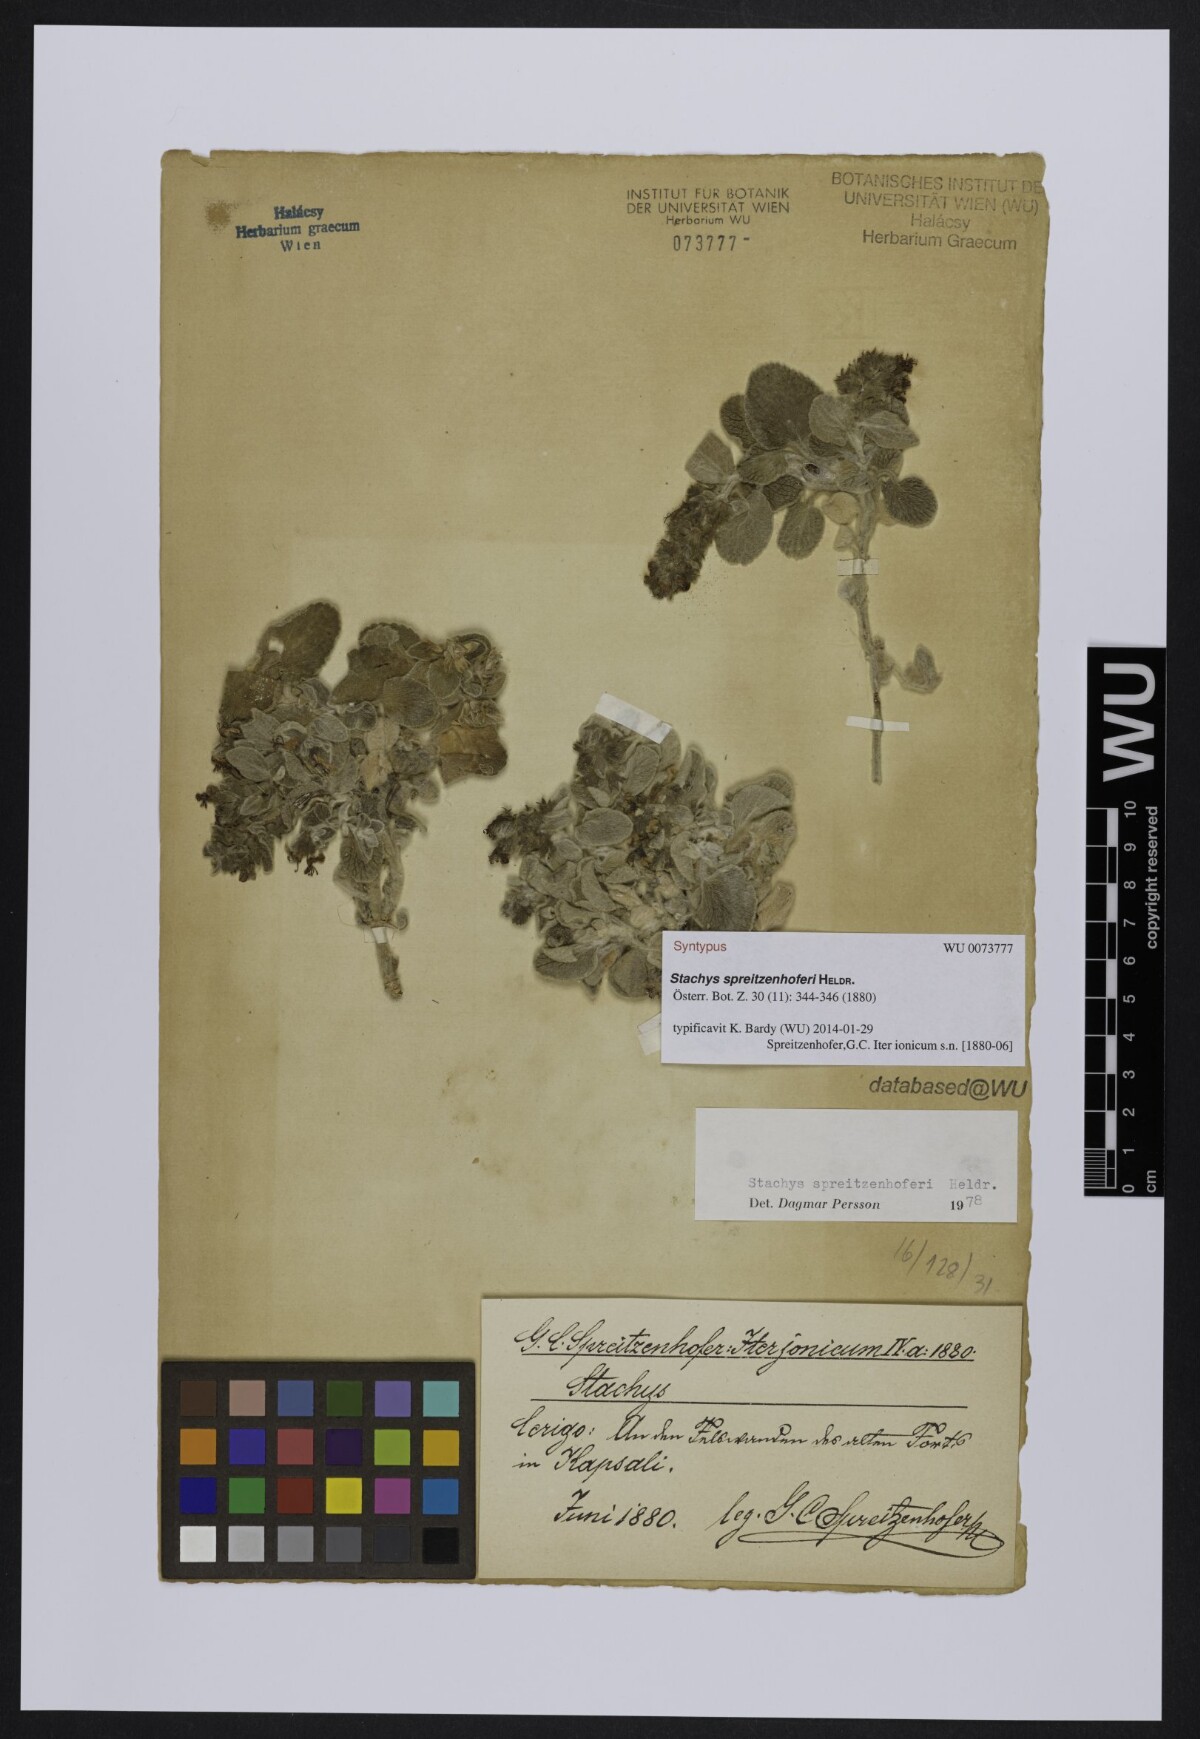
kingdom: Plantae
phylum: Tracheophyta
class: Magnoliopsida
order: Lamiales
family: Lamiaceae
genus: Stachys
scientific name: Stachys spreitzenhoferi
